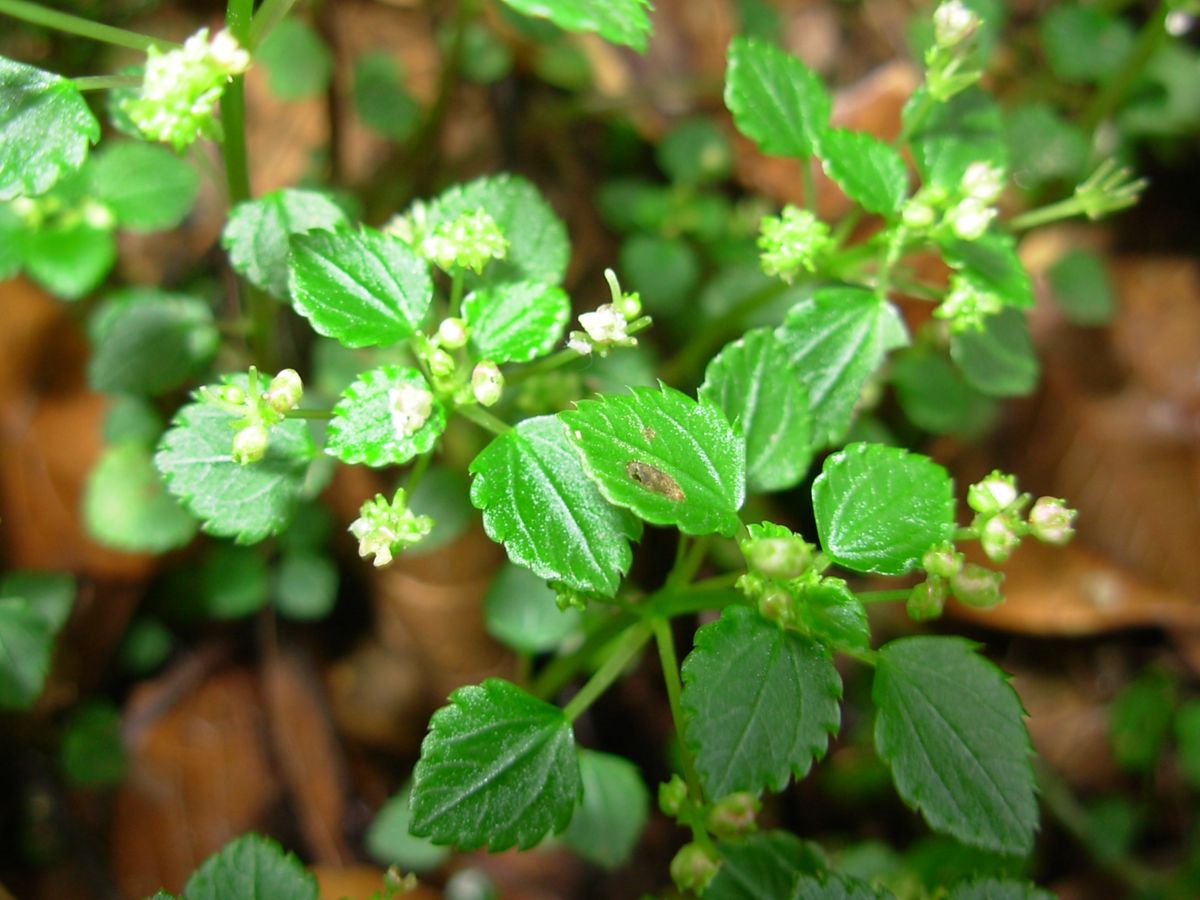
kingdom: Plantae
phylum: Tracheophyta
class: Magnoliopsida
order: Rosales
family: Urticaceae
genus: Pilea
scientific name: Pilea dauciodora
